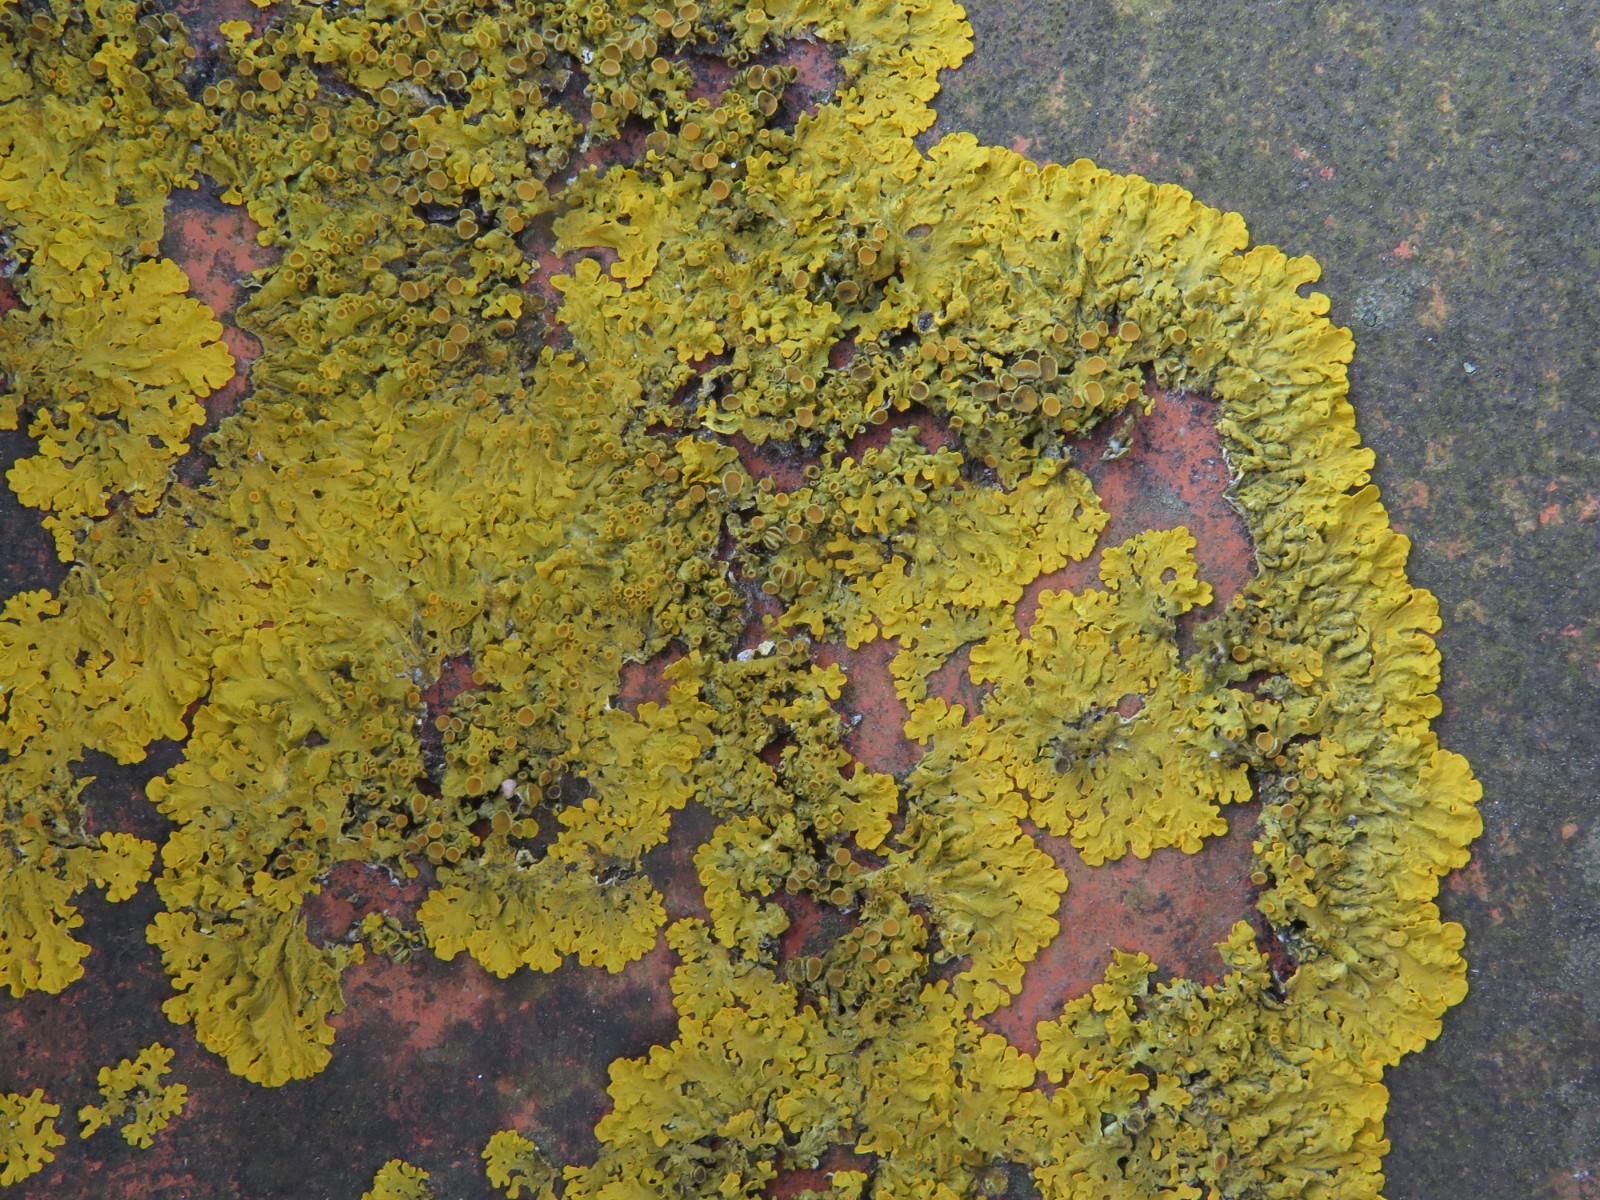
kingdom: Fungi
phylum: Ascomycota
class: Lecanoromycetes
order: Teloschistales
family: Teloschistaceae
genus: Xanthoria
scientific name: Xanthoria parietina
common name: almindelig væggelav
